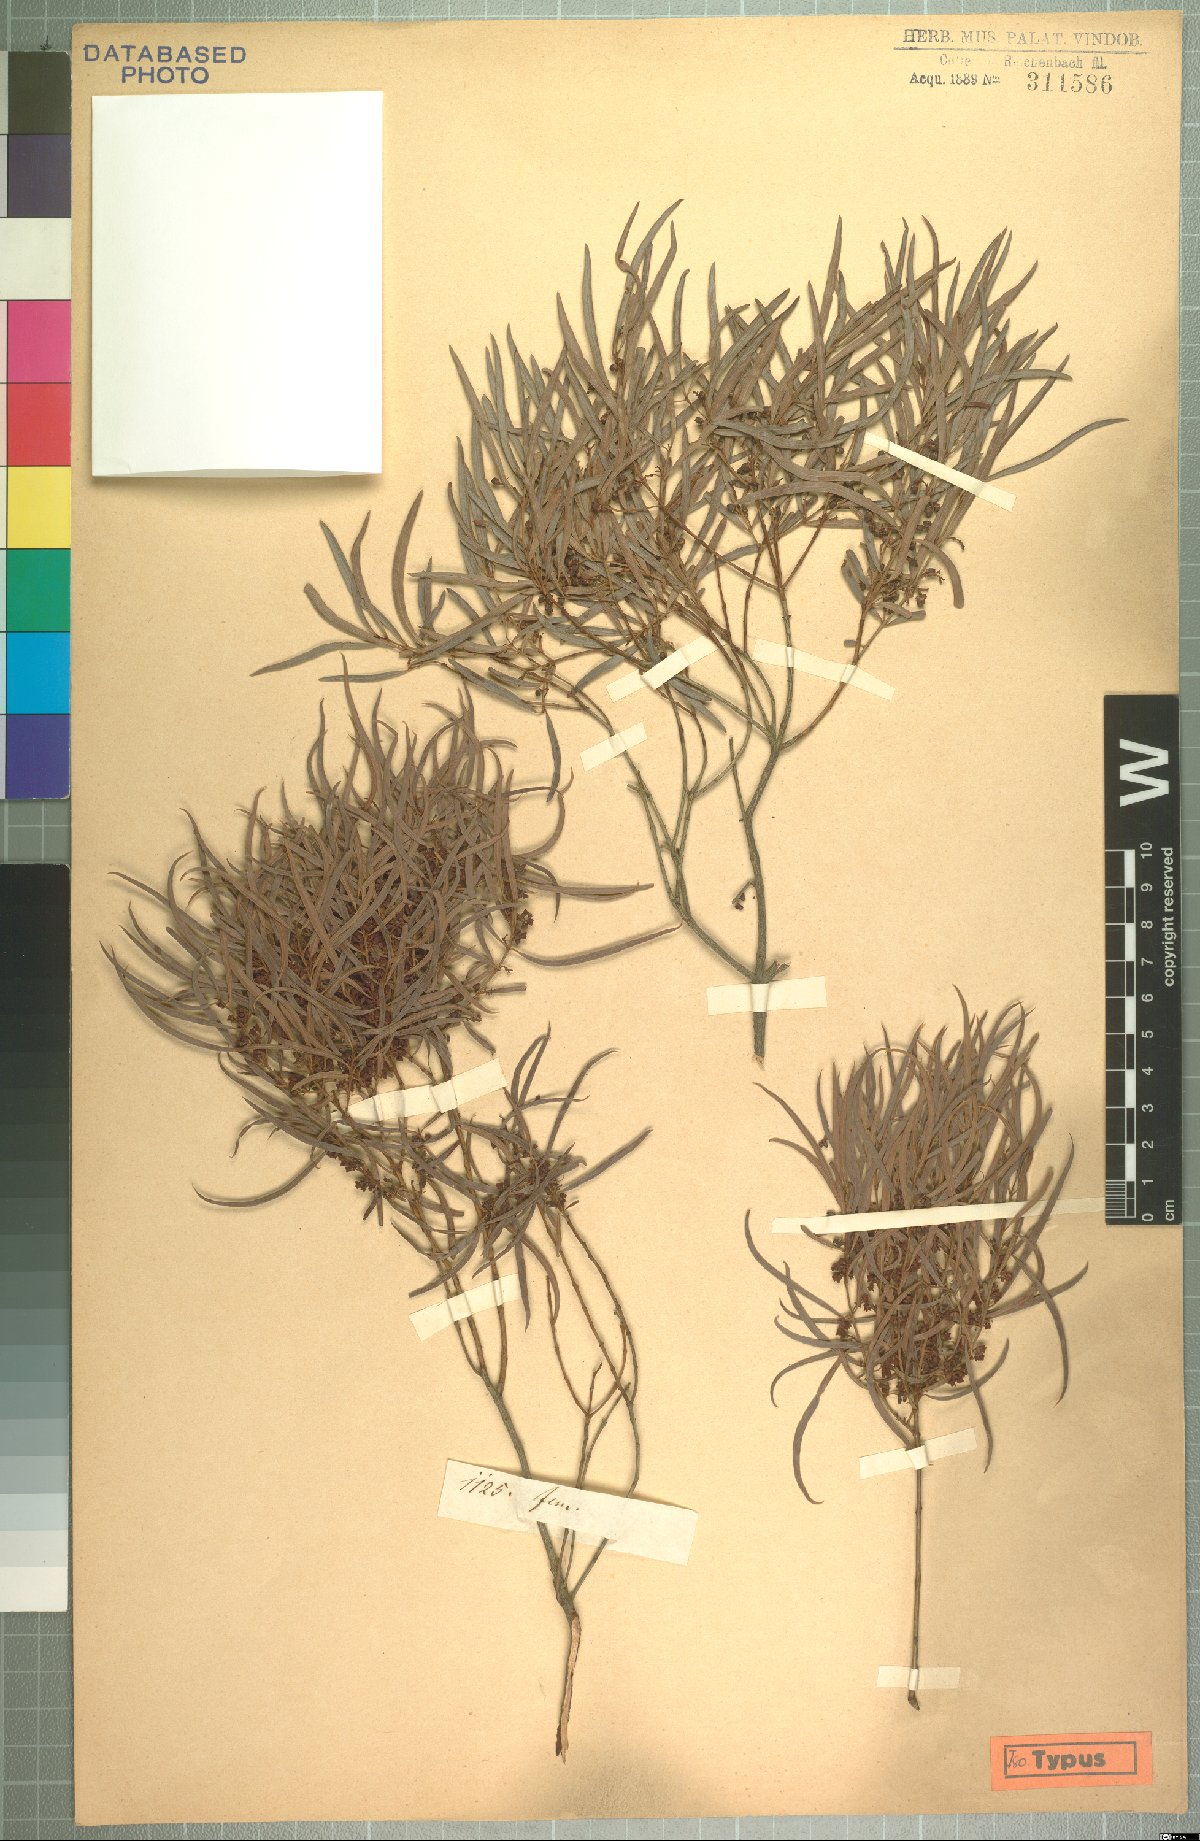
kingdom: Plantae
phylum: Tracheophyta
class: Magnoliopsida
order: Ericales
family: Ebenaceae
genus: Euclea
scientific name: Euclea crispa
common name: Blue guarri
